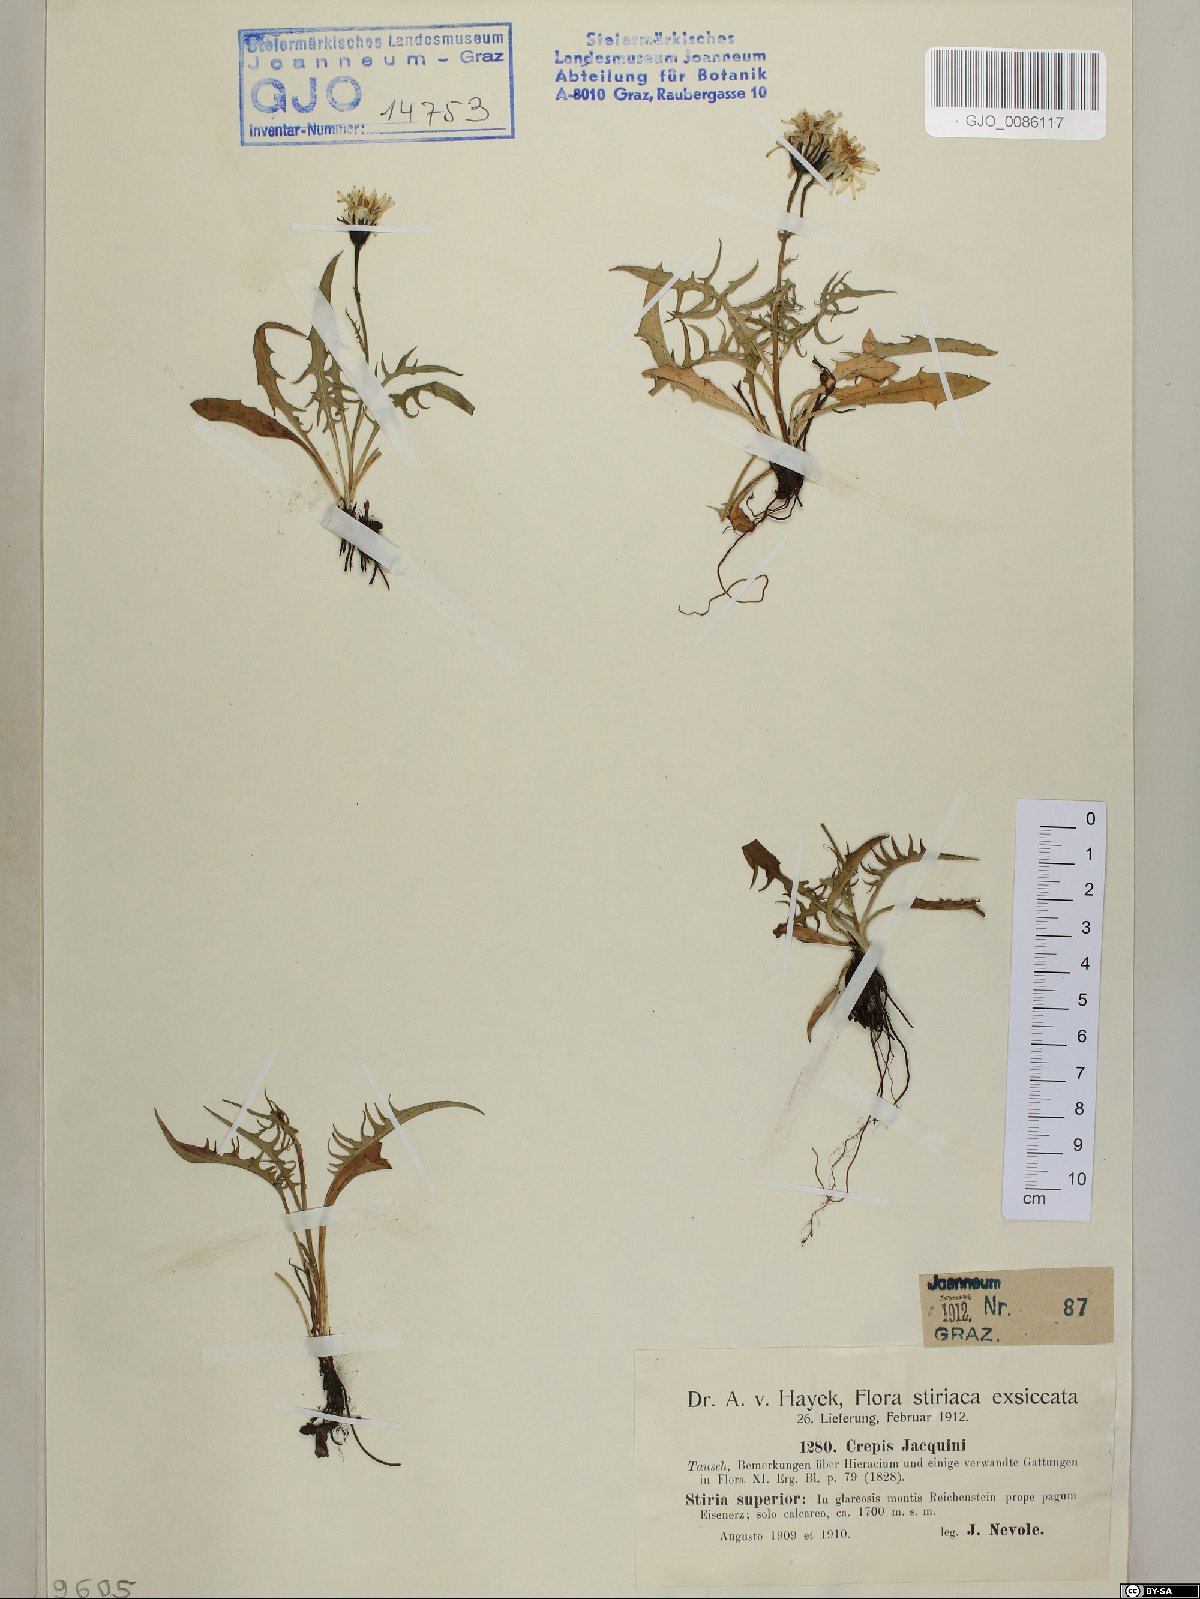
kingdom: Plantae
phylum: Tracheophyta
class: Magnoliopsida
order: Asterales
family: Asteraceae
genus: Crepis
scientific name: Crepis jacquinii
